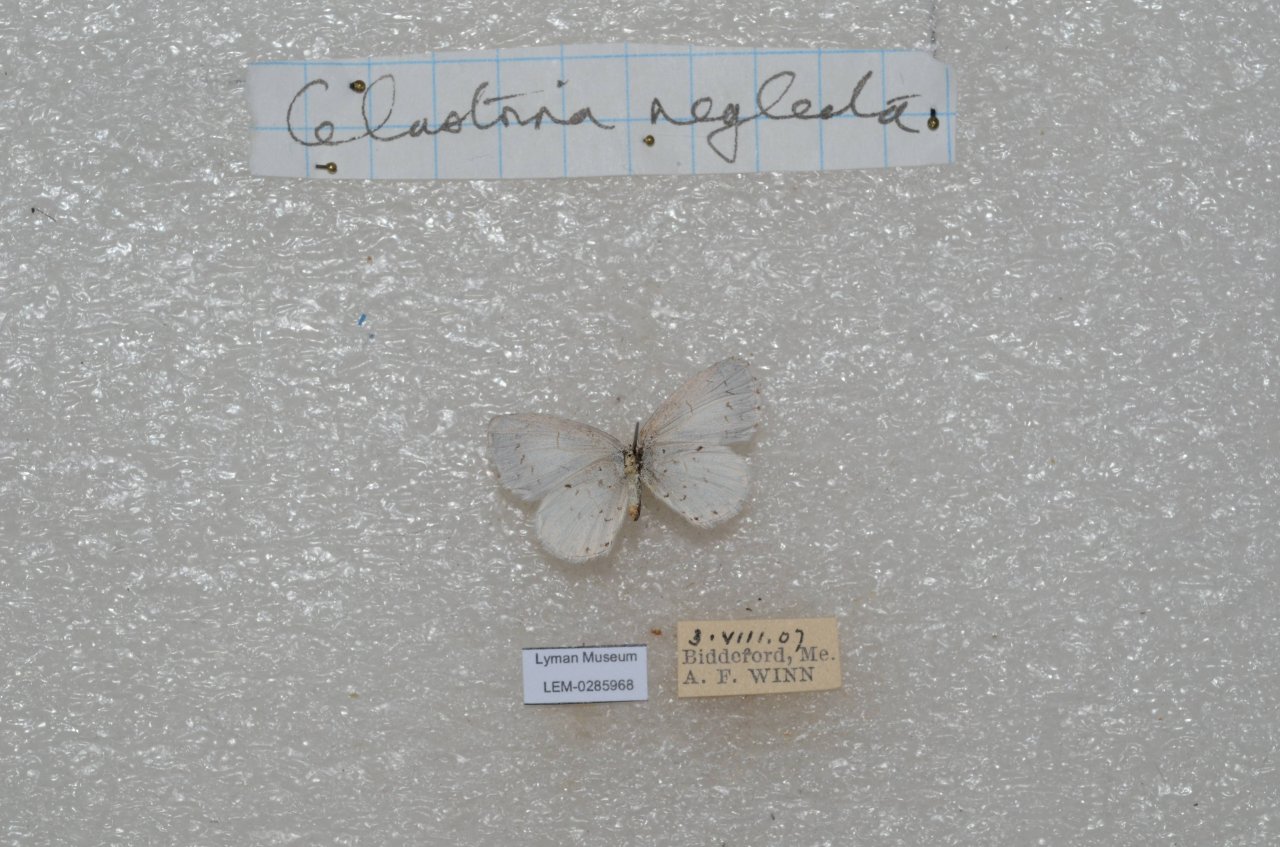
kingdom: Animalia
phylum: Arthropoda
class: Insecta
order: Lepidoptera
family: Lycaenidae
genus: Cyaniris
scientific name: Cyaniris neglecta
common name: Summer Azure
